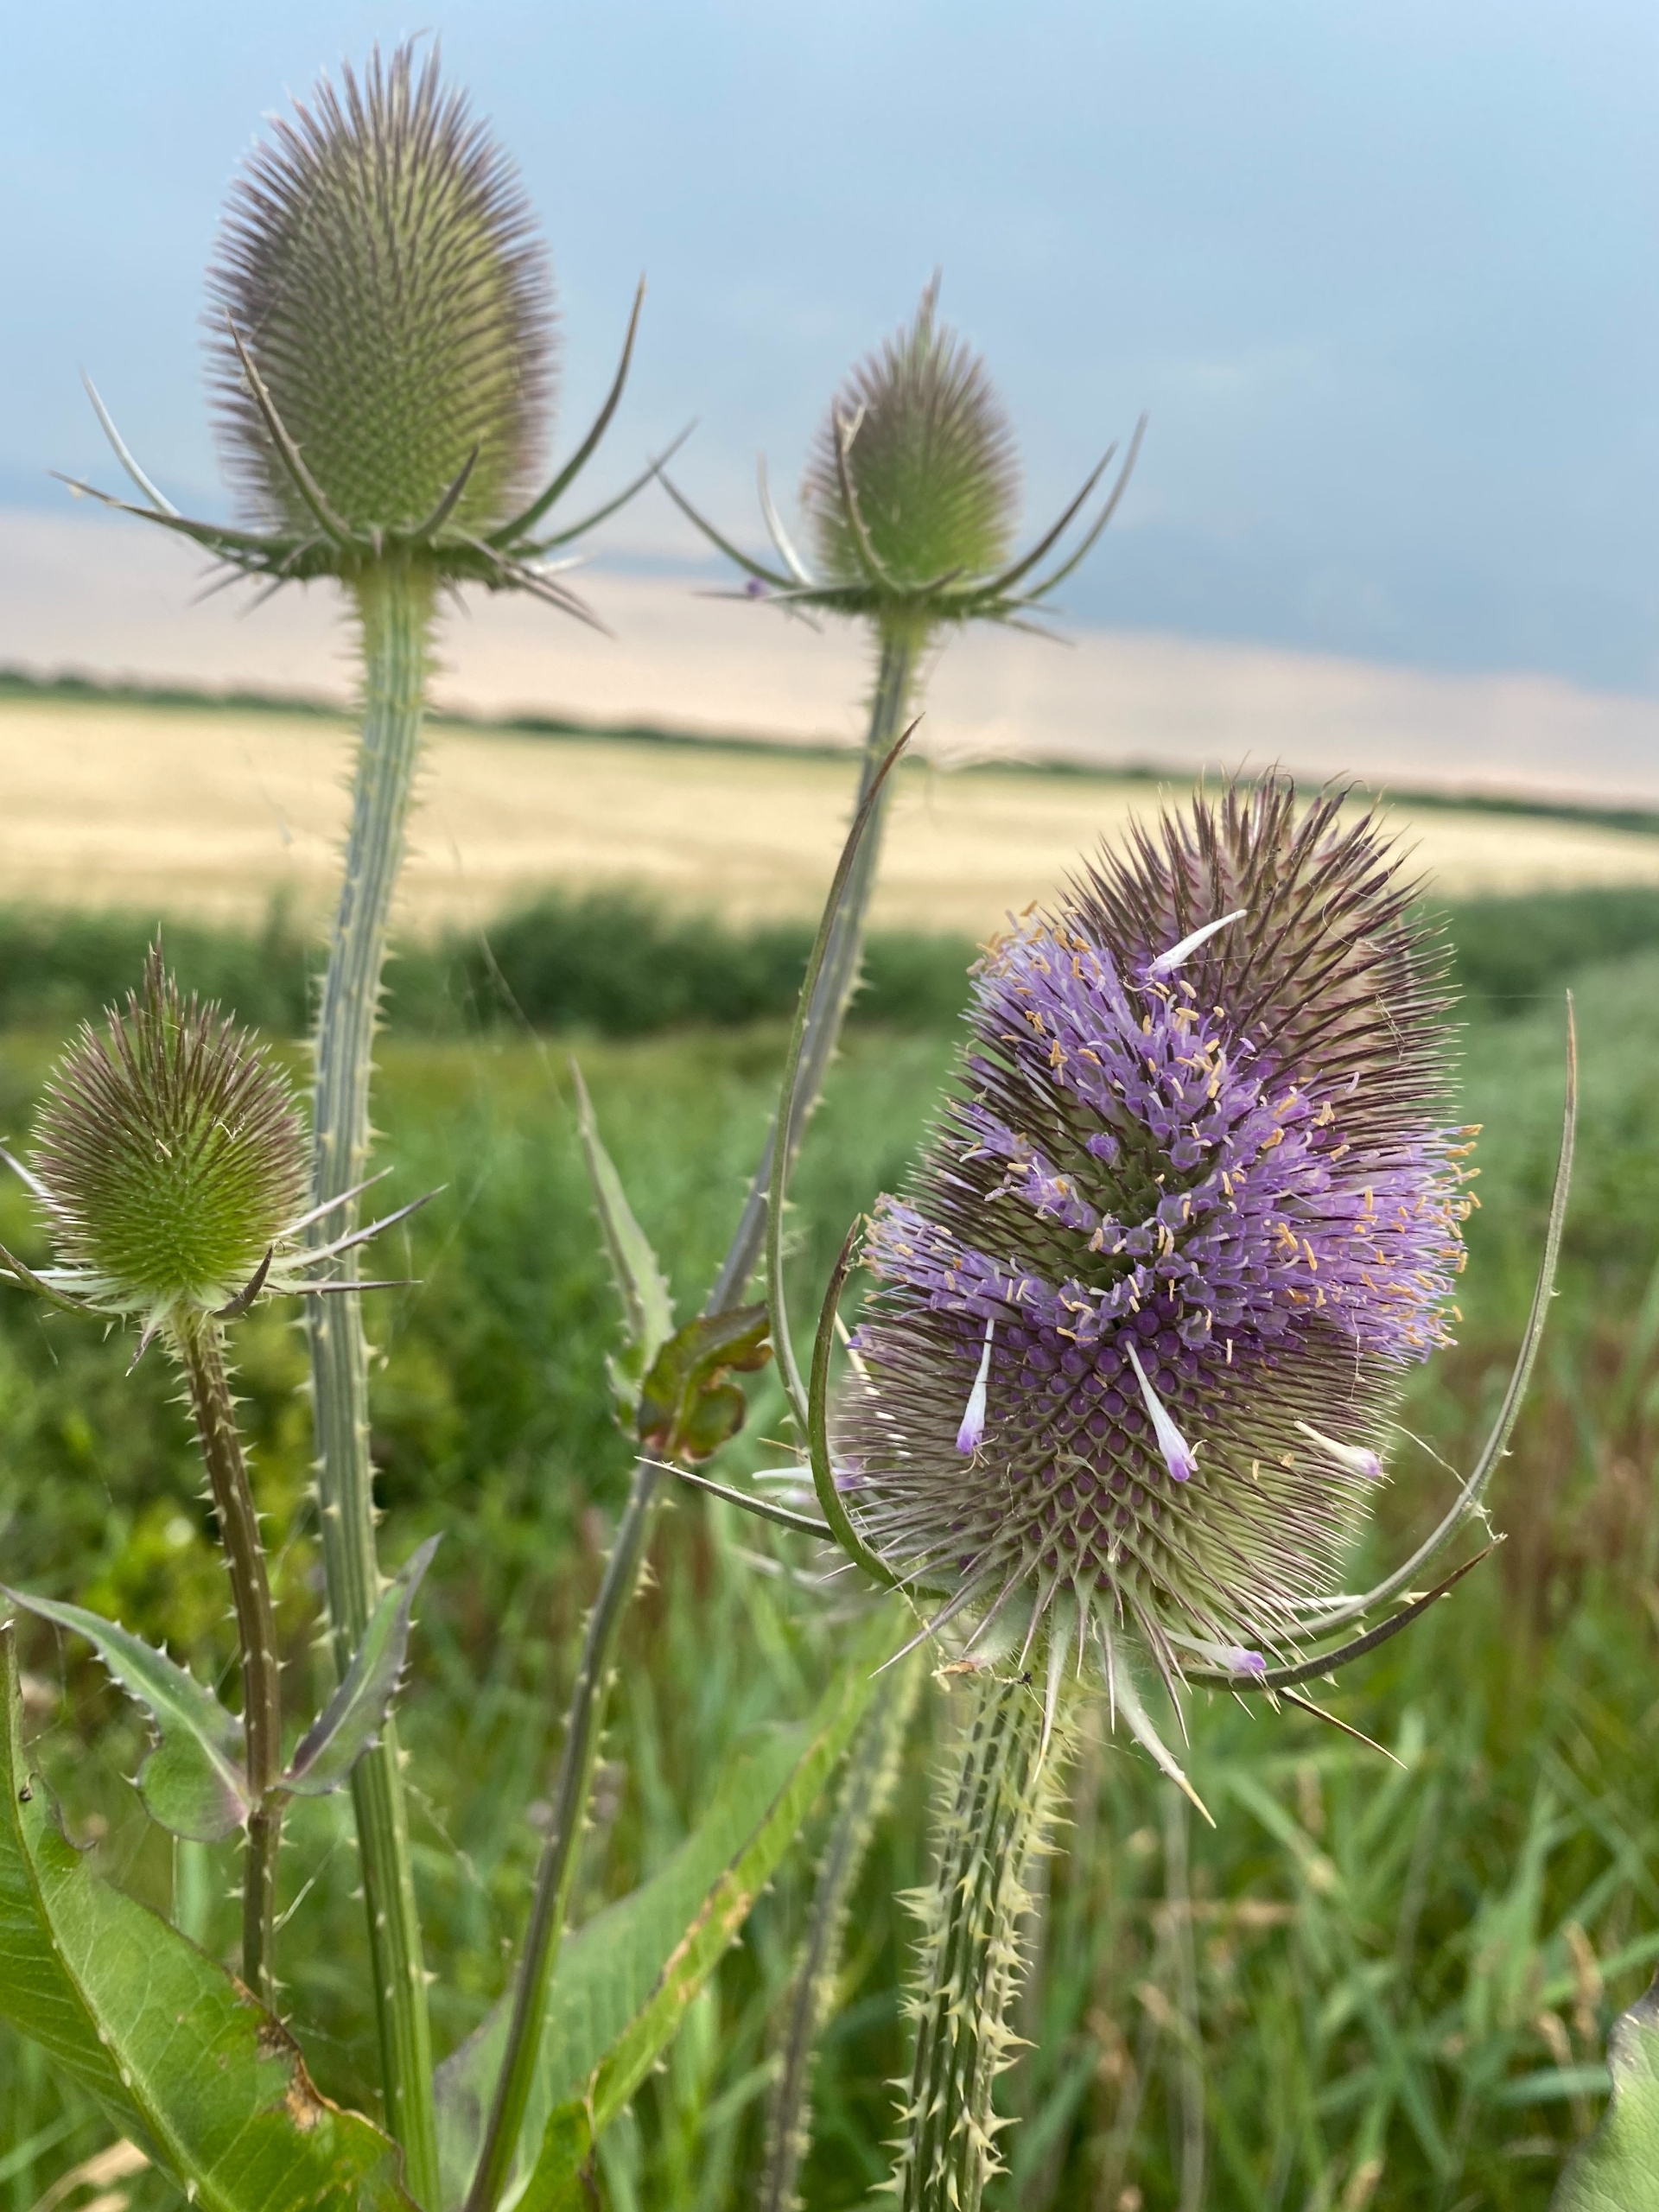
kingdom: Plantae
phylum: Tracheophyta
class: Magnoliopsida
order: Dipsacales
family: Caprifoliaceae
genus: Dipsacus
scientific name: Dipsacus fullonum
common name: Gærde-kartebolle
